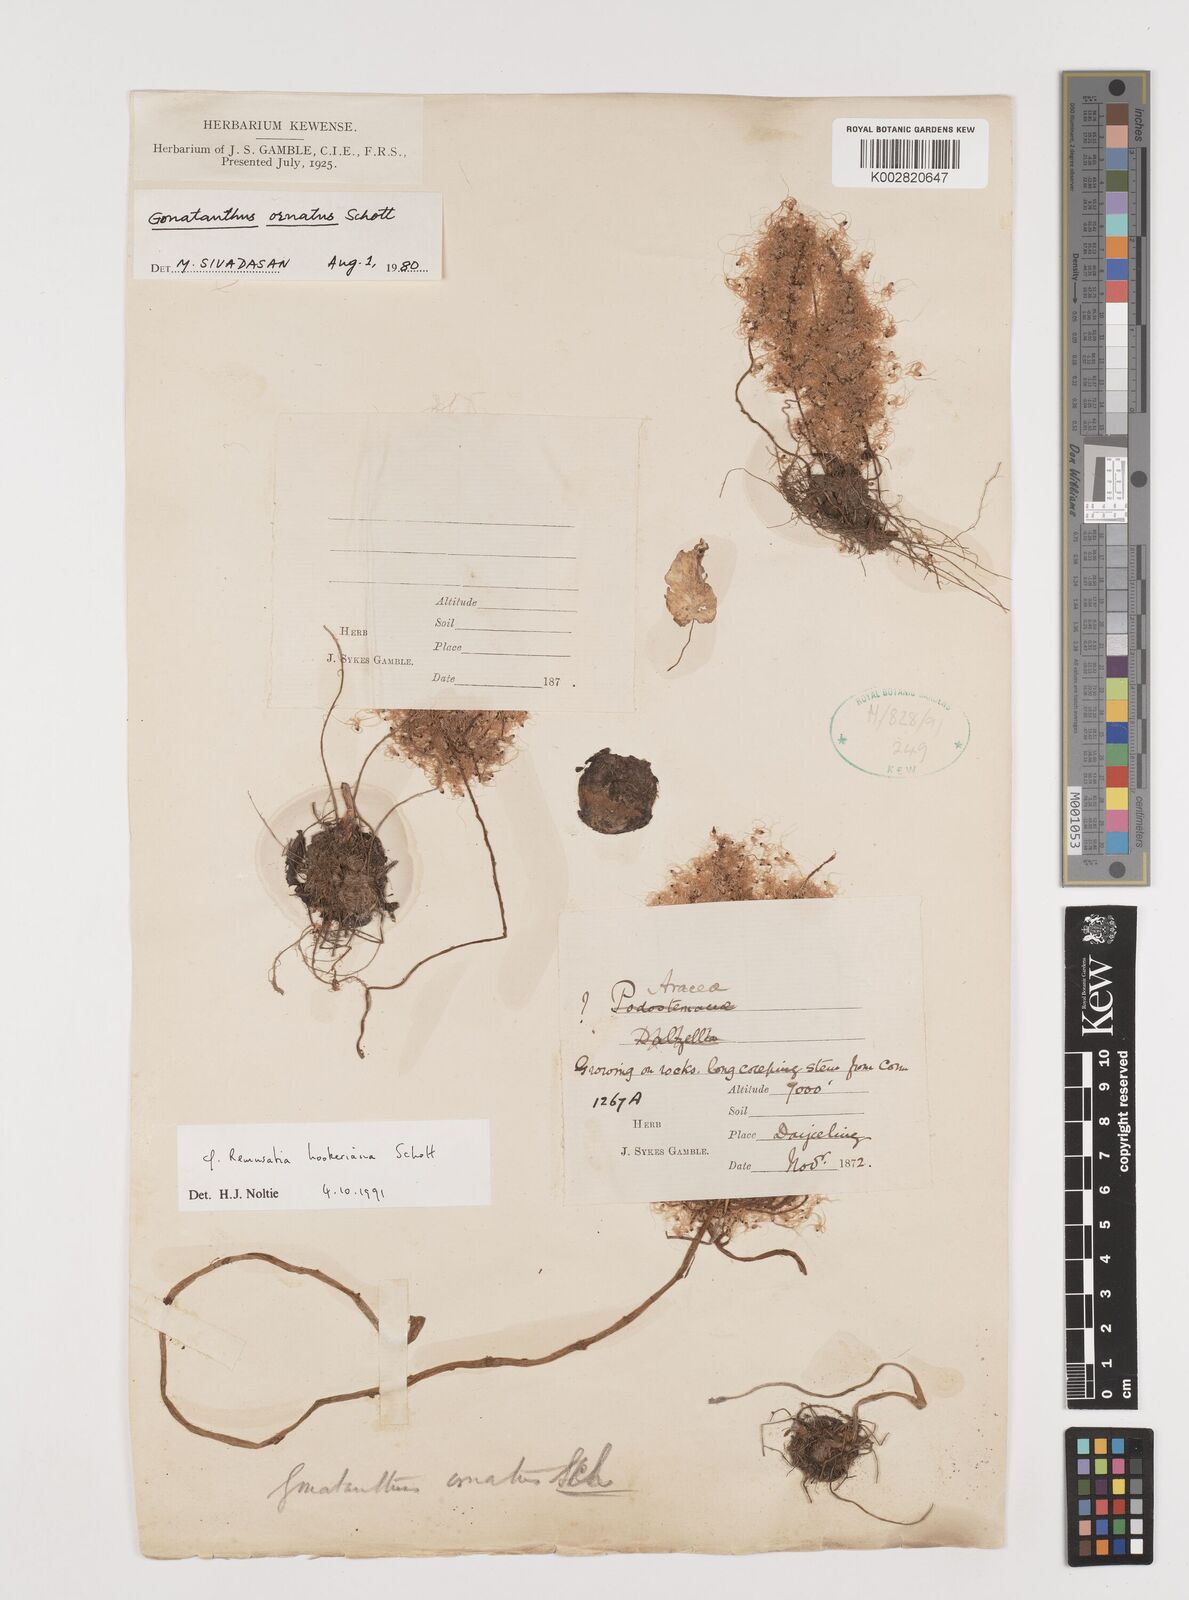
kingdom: Plantae
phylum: Tracheophyta
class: Liliopsida
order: Alismatales
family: Araceae
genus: Remusatia
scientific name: Remusatia hookeriana
